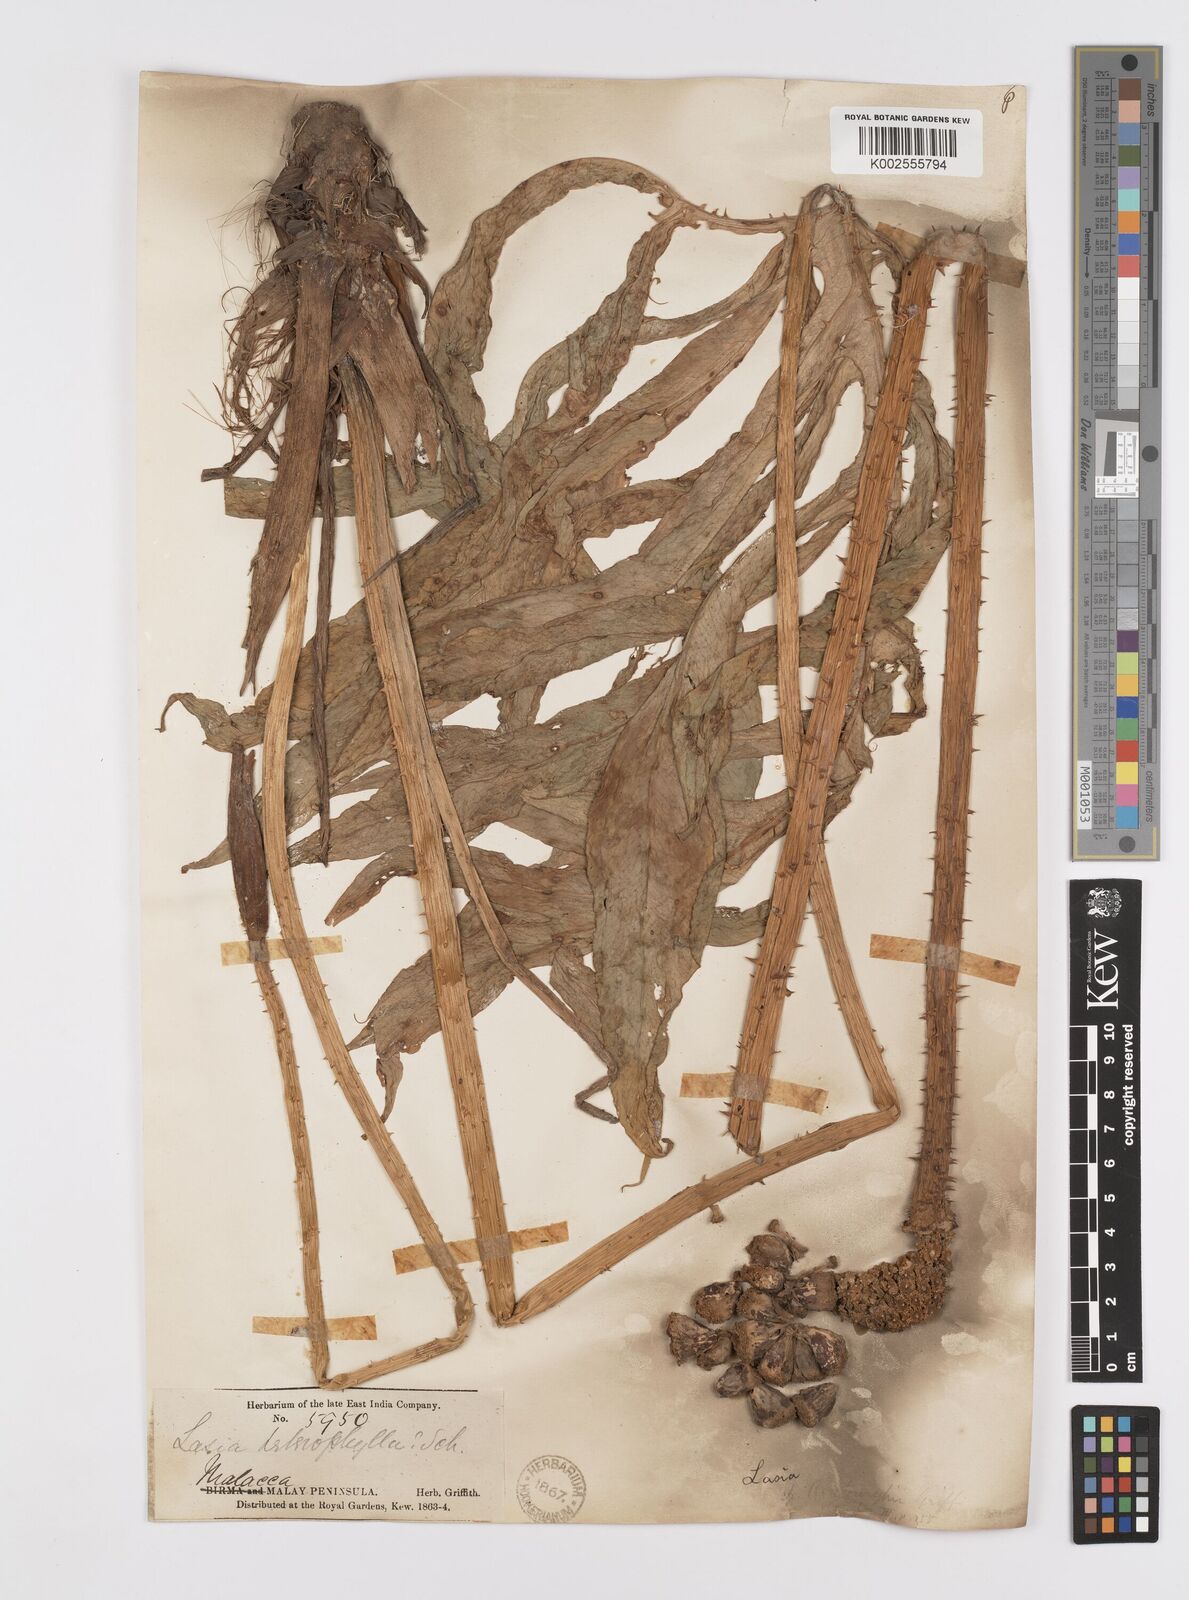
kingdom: Plantae
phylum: Tracheophyta
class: Liliopsida
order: Alismatales
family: Araceae
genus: Lasia
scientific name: Lasia spinosa
